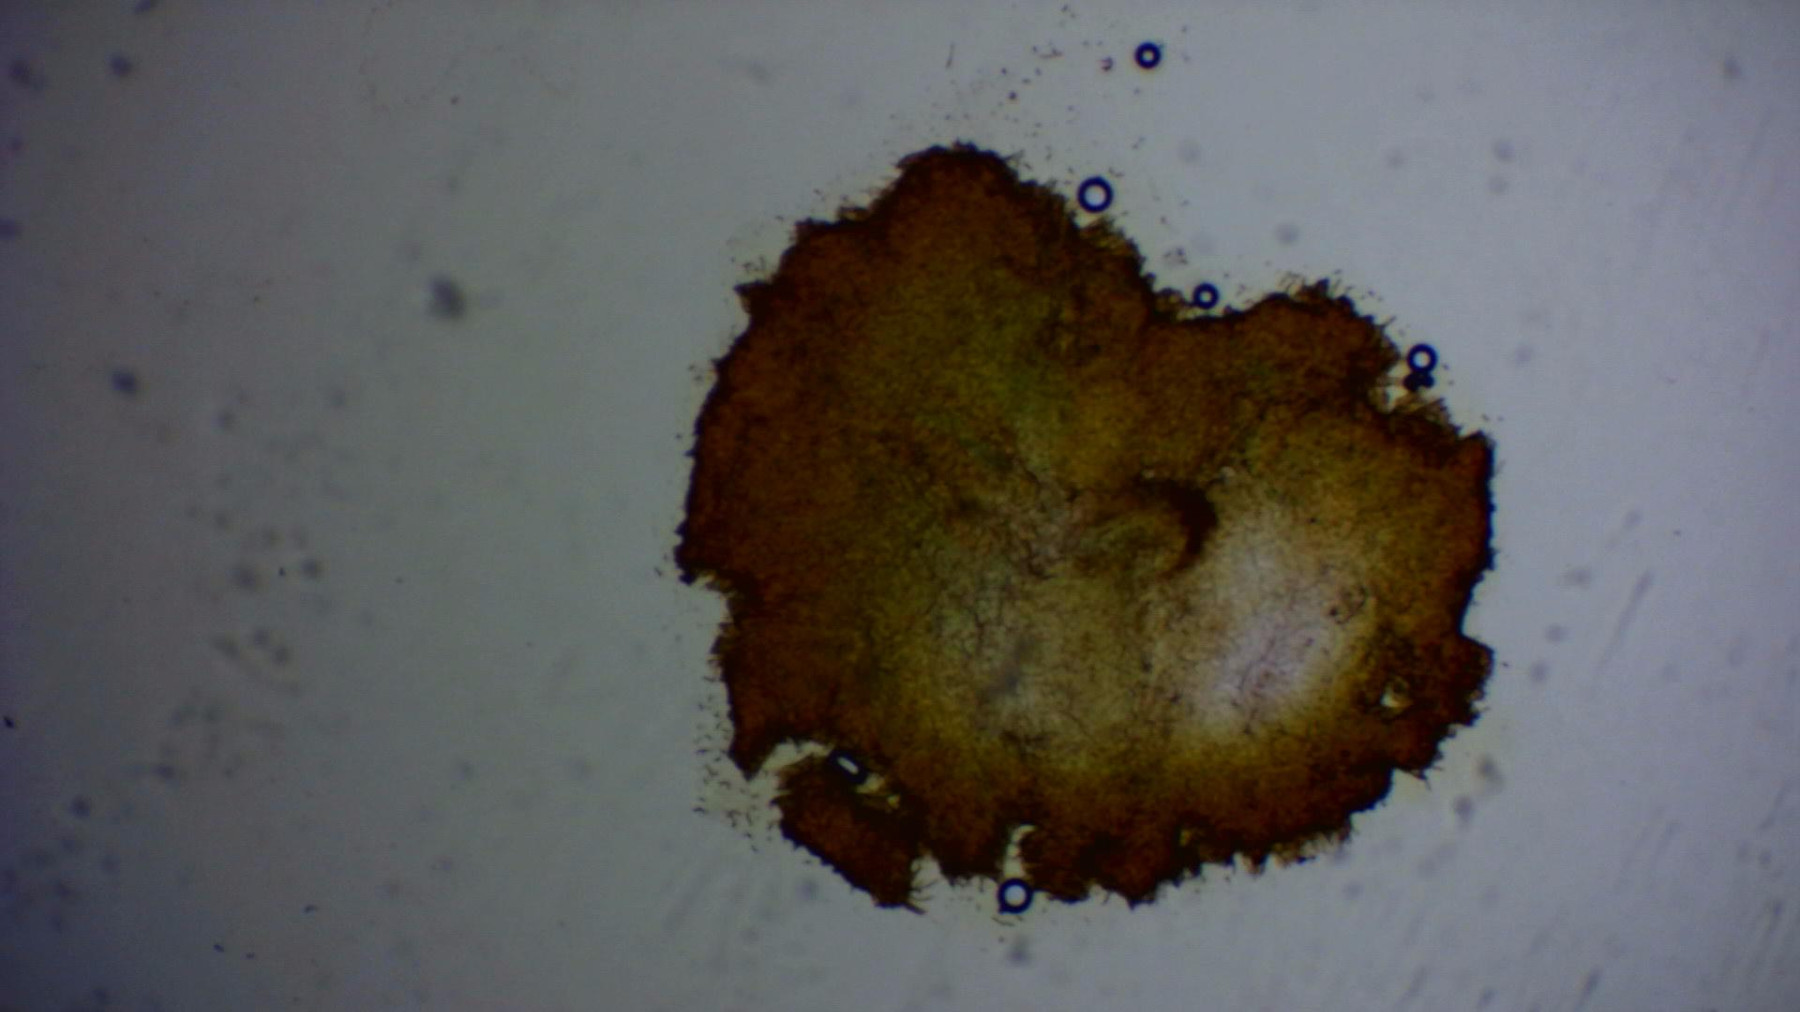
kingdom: Fungi
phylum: Ascomycota
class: Leotiomycetes
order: Helotiales
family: Hyaloscyphaceae
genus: Cistella
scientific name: Cistella grevillei
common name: lædergul sirskive
